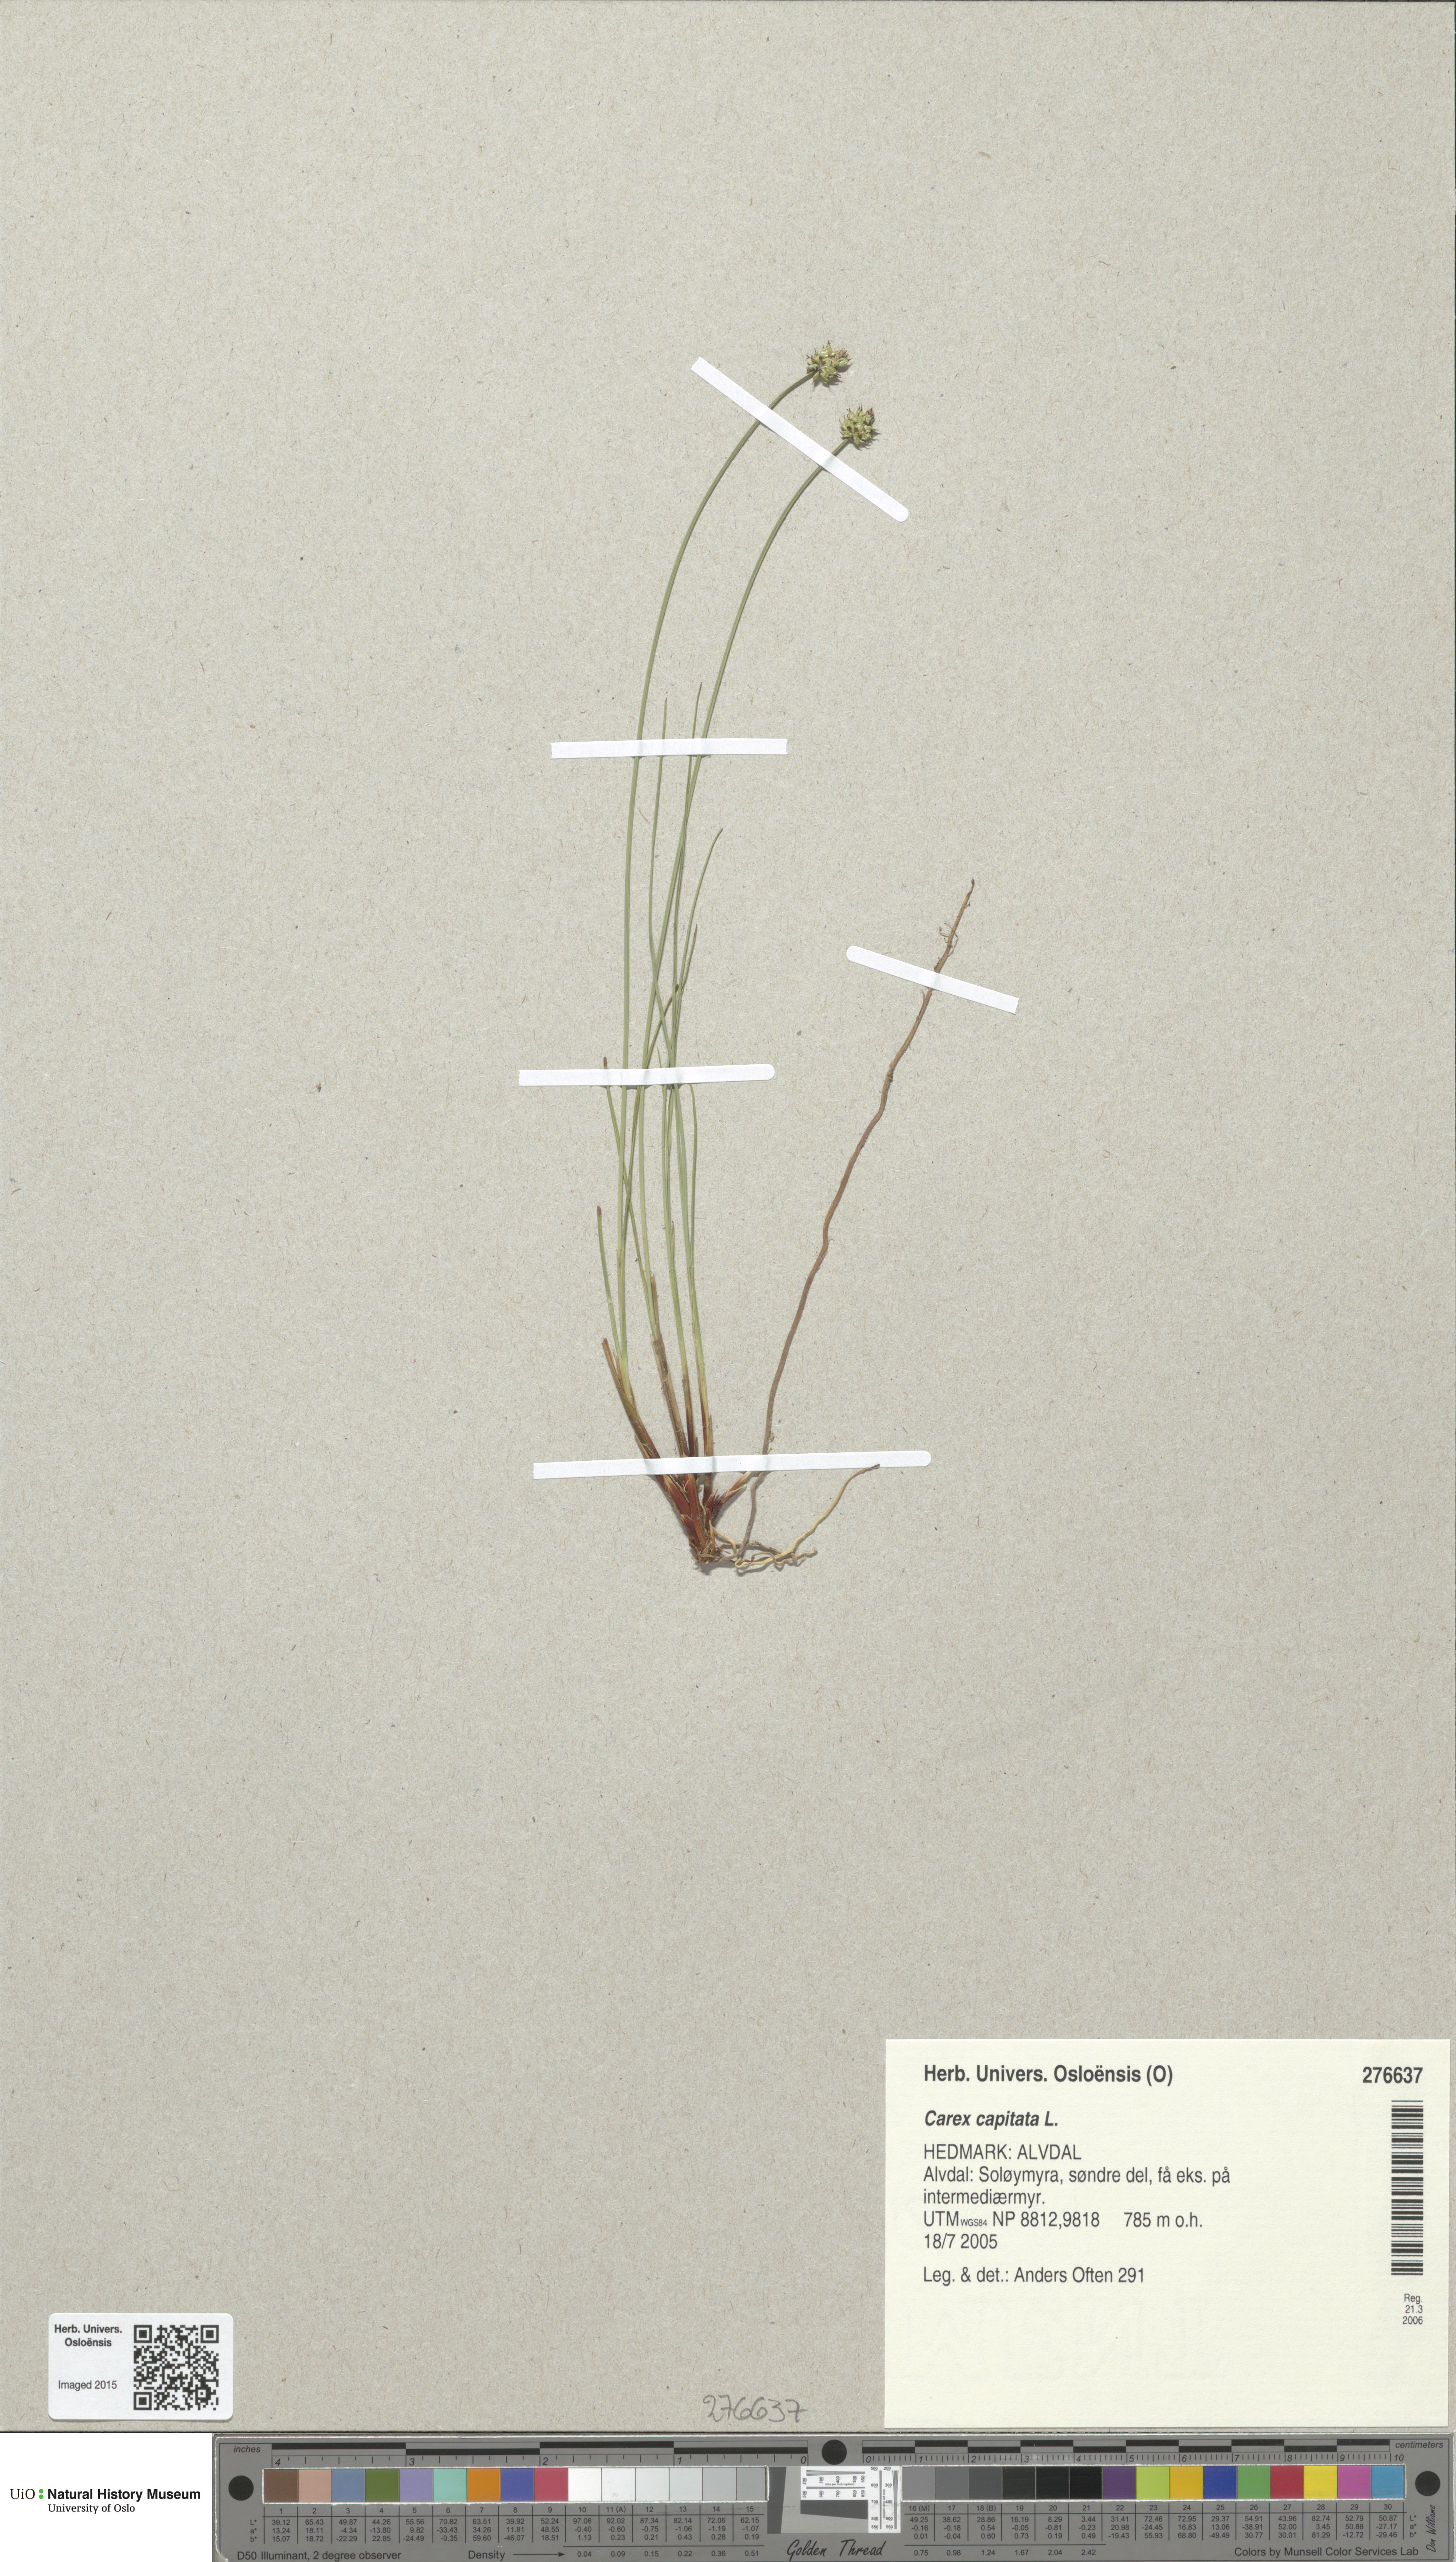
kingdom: Plantae
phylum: Tracheophyta
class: Liliopsida
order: Poales
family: Cyperaceae
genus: Carex
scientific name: Carex capitata
